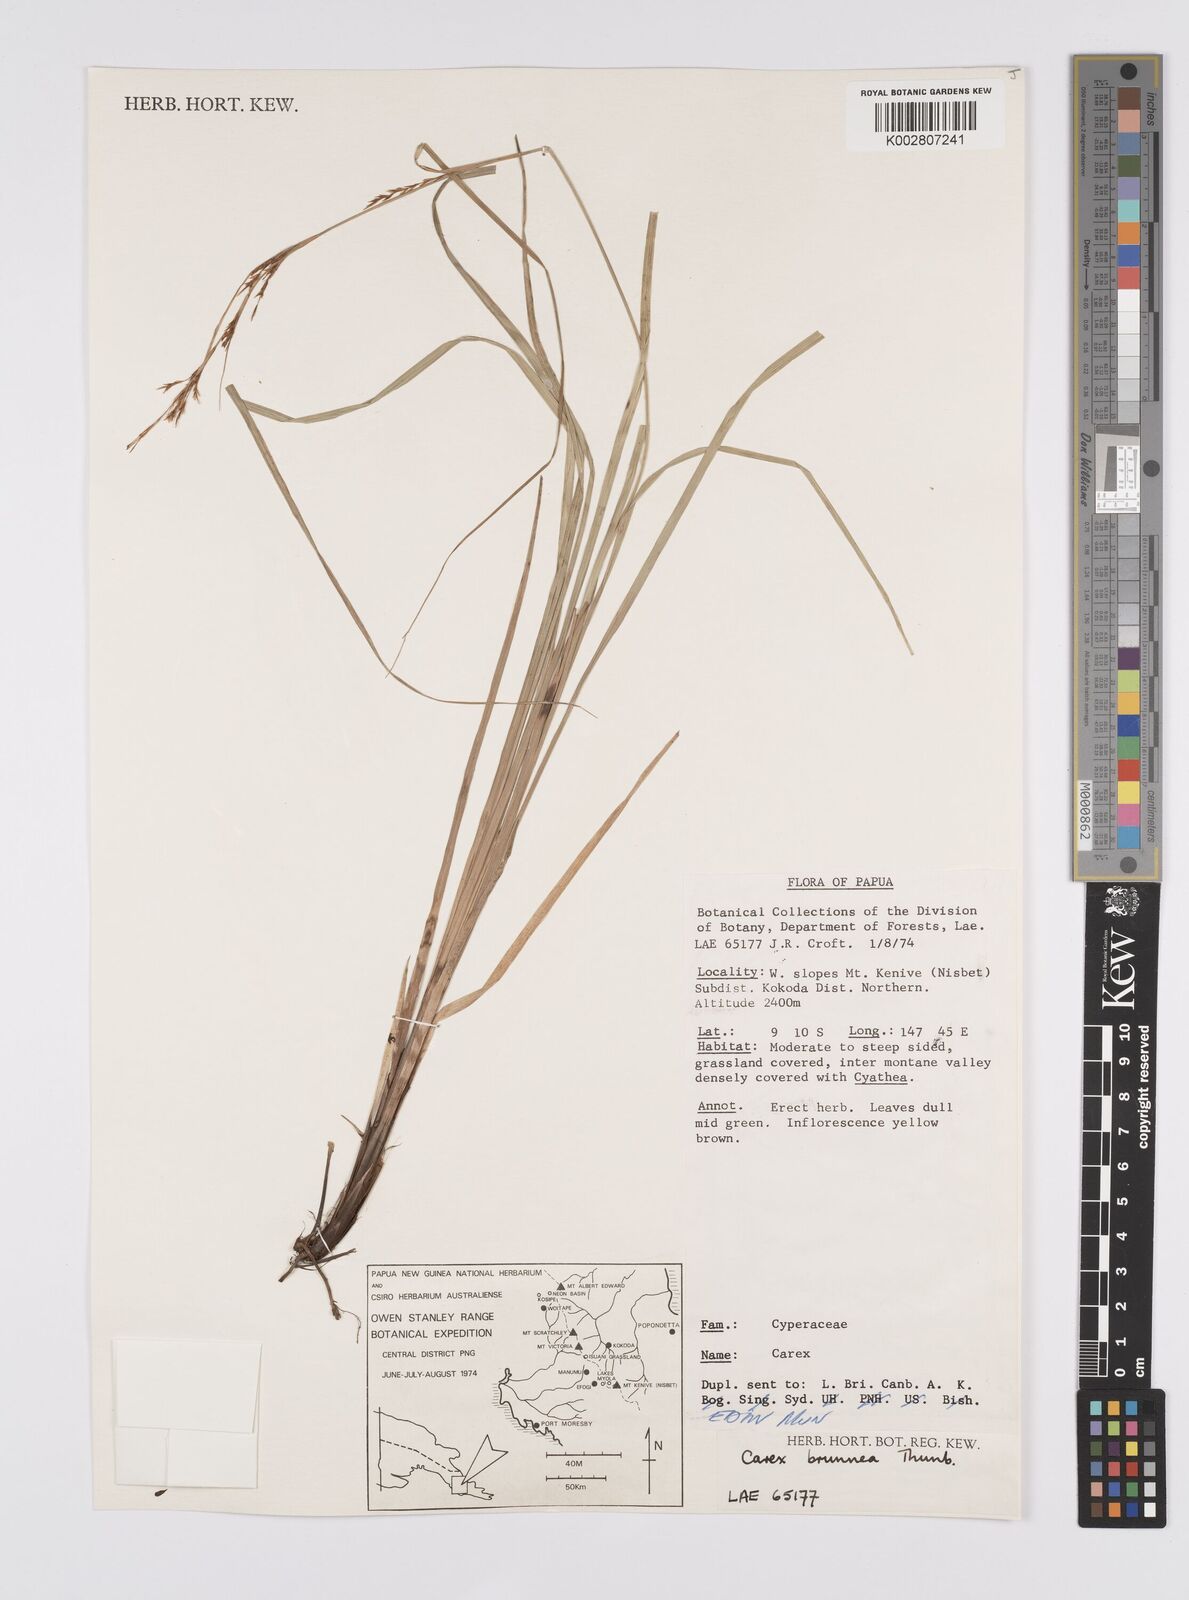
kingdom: Plantae
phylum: Tracheophyta
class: Liliopsida
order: Poales
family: Cyperaceae
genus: Carex
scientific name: Carex brunnea
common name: Greater brown sedge
